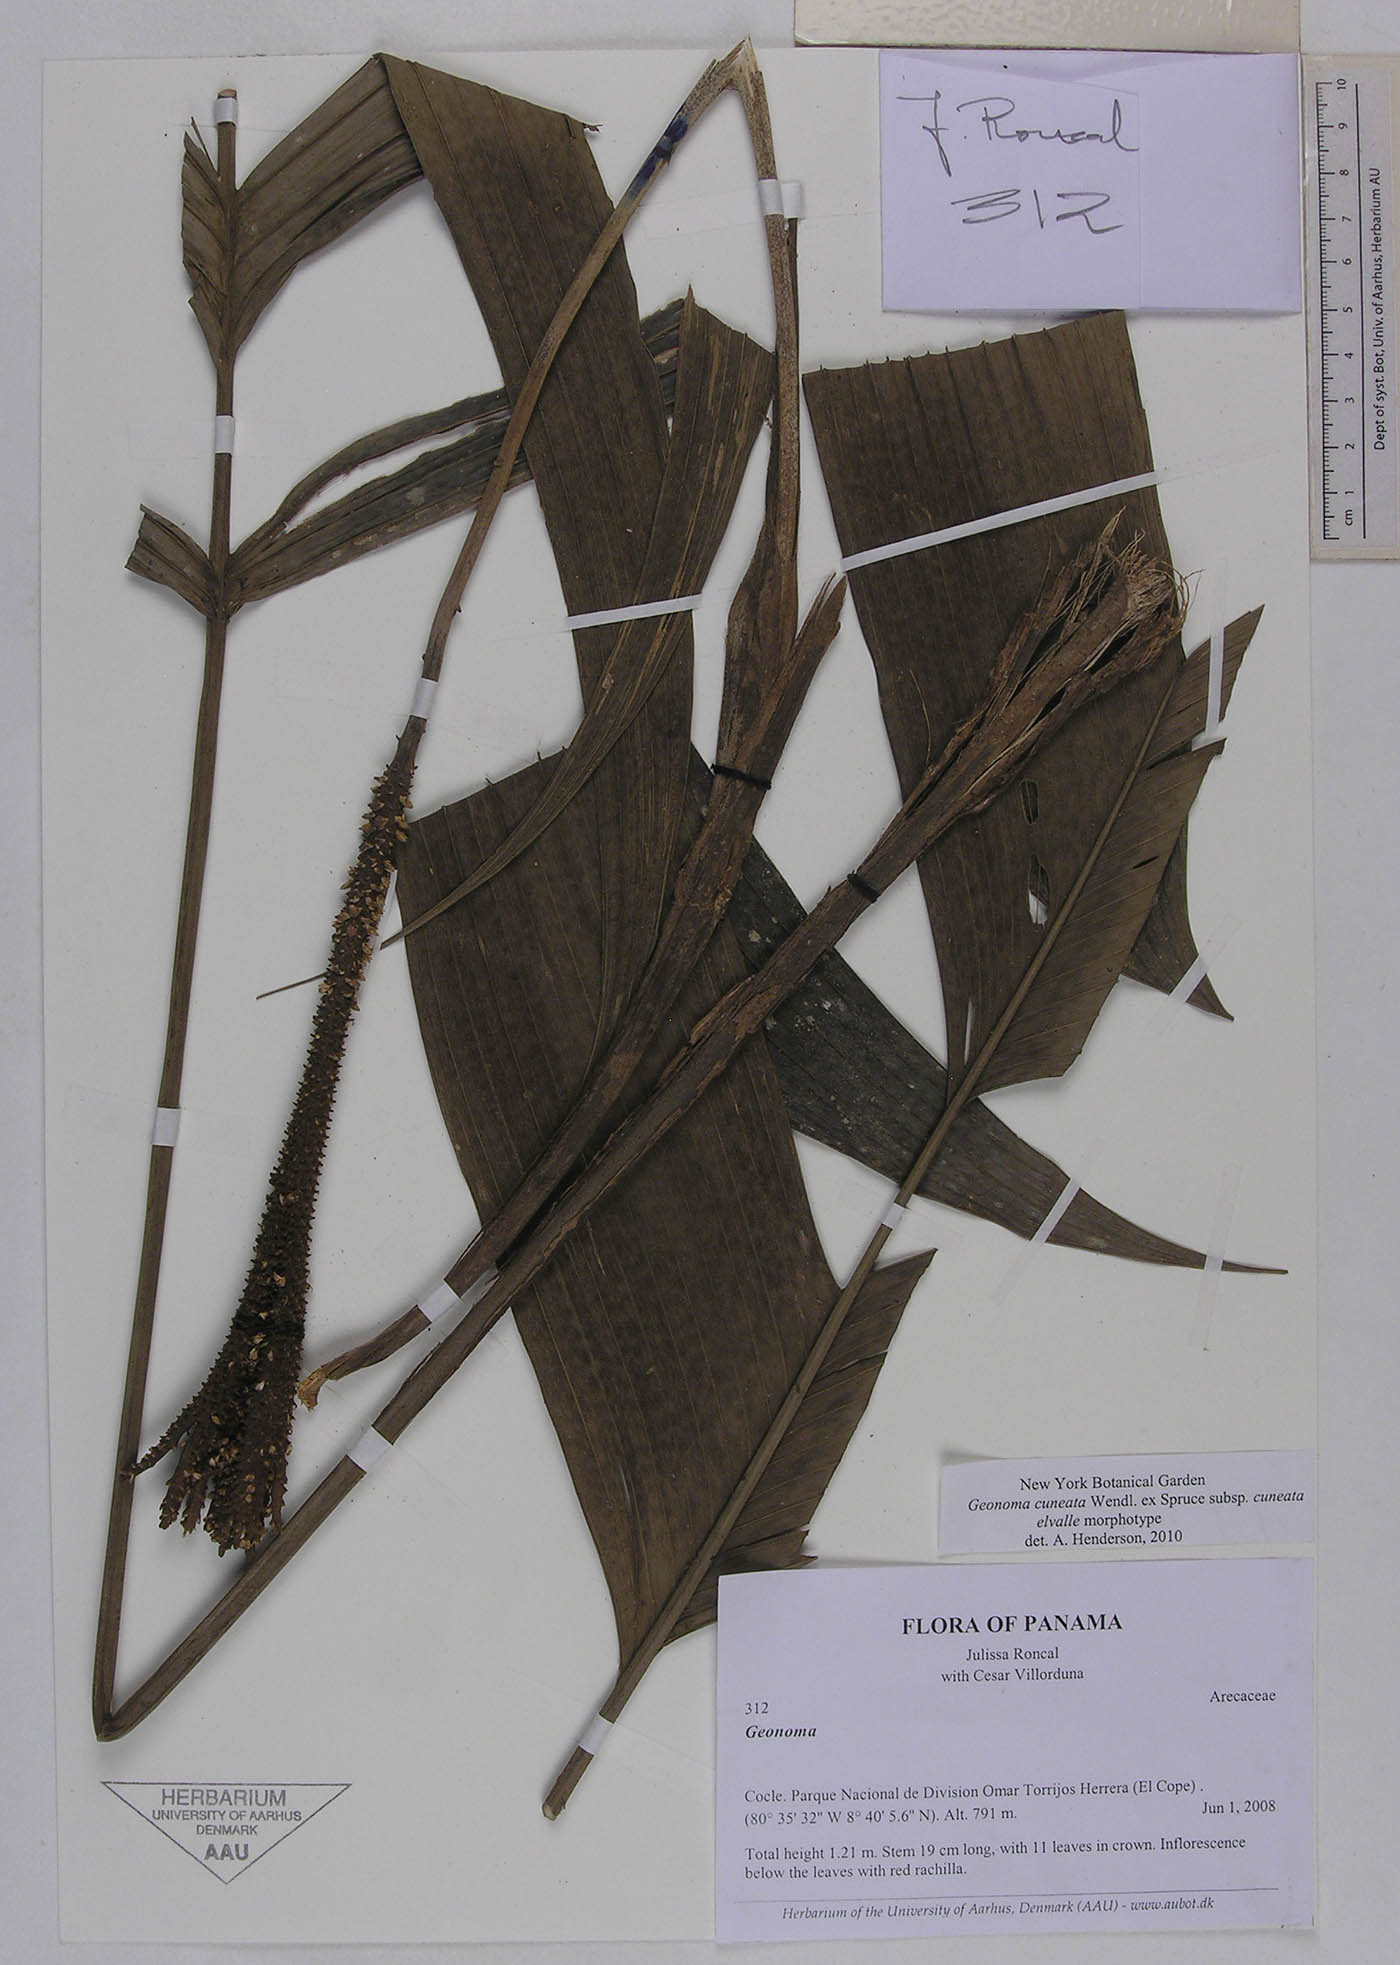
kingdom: Plantae
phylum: Tracheophyta
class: Liliopsida
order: Arecales
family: Arecaceae
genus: Geonoma
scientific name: Geonoma cuneata
